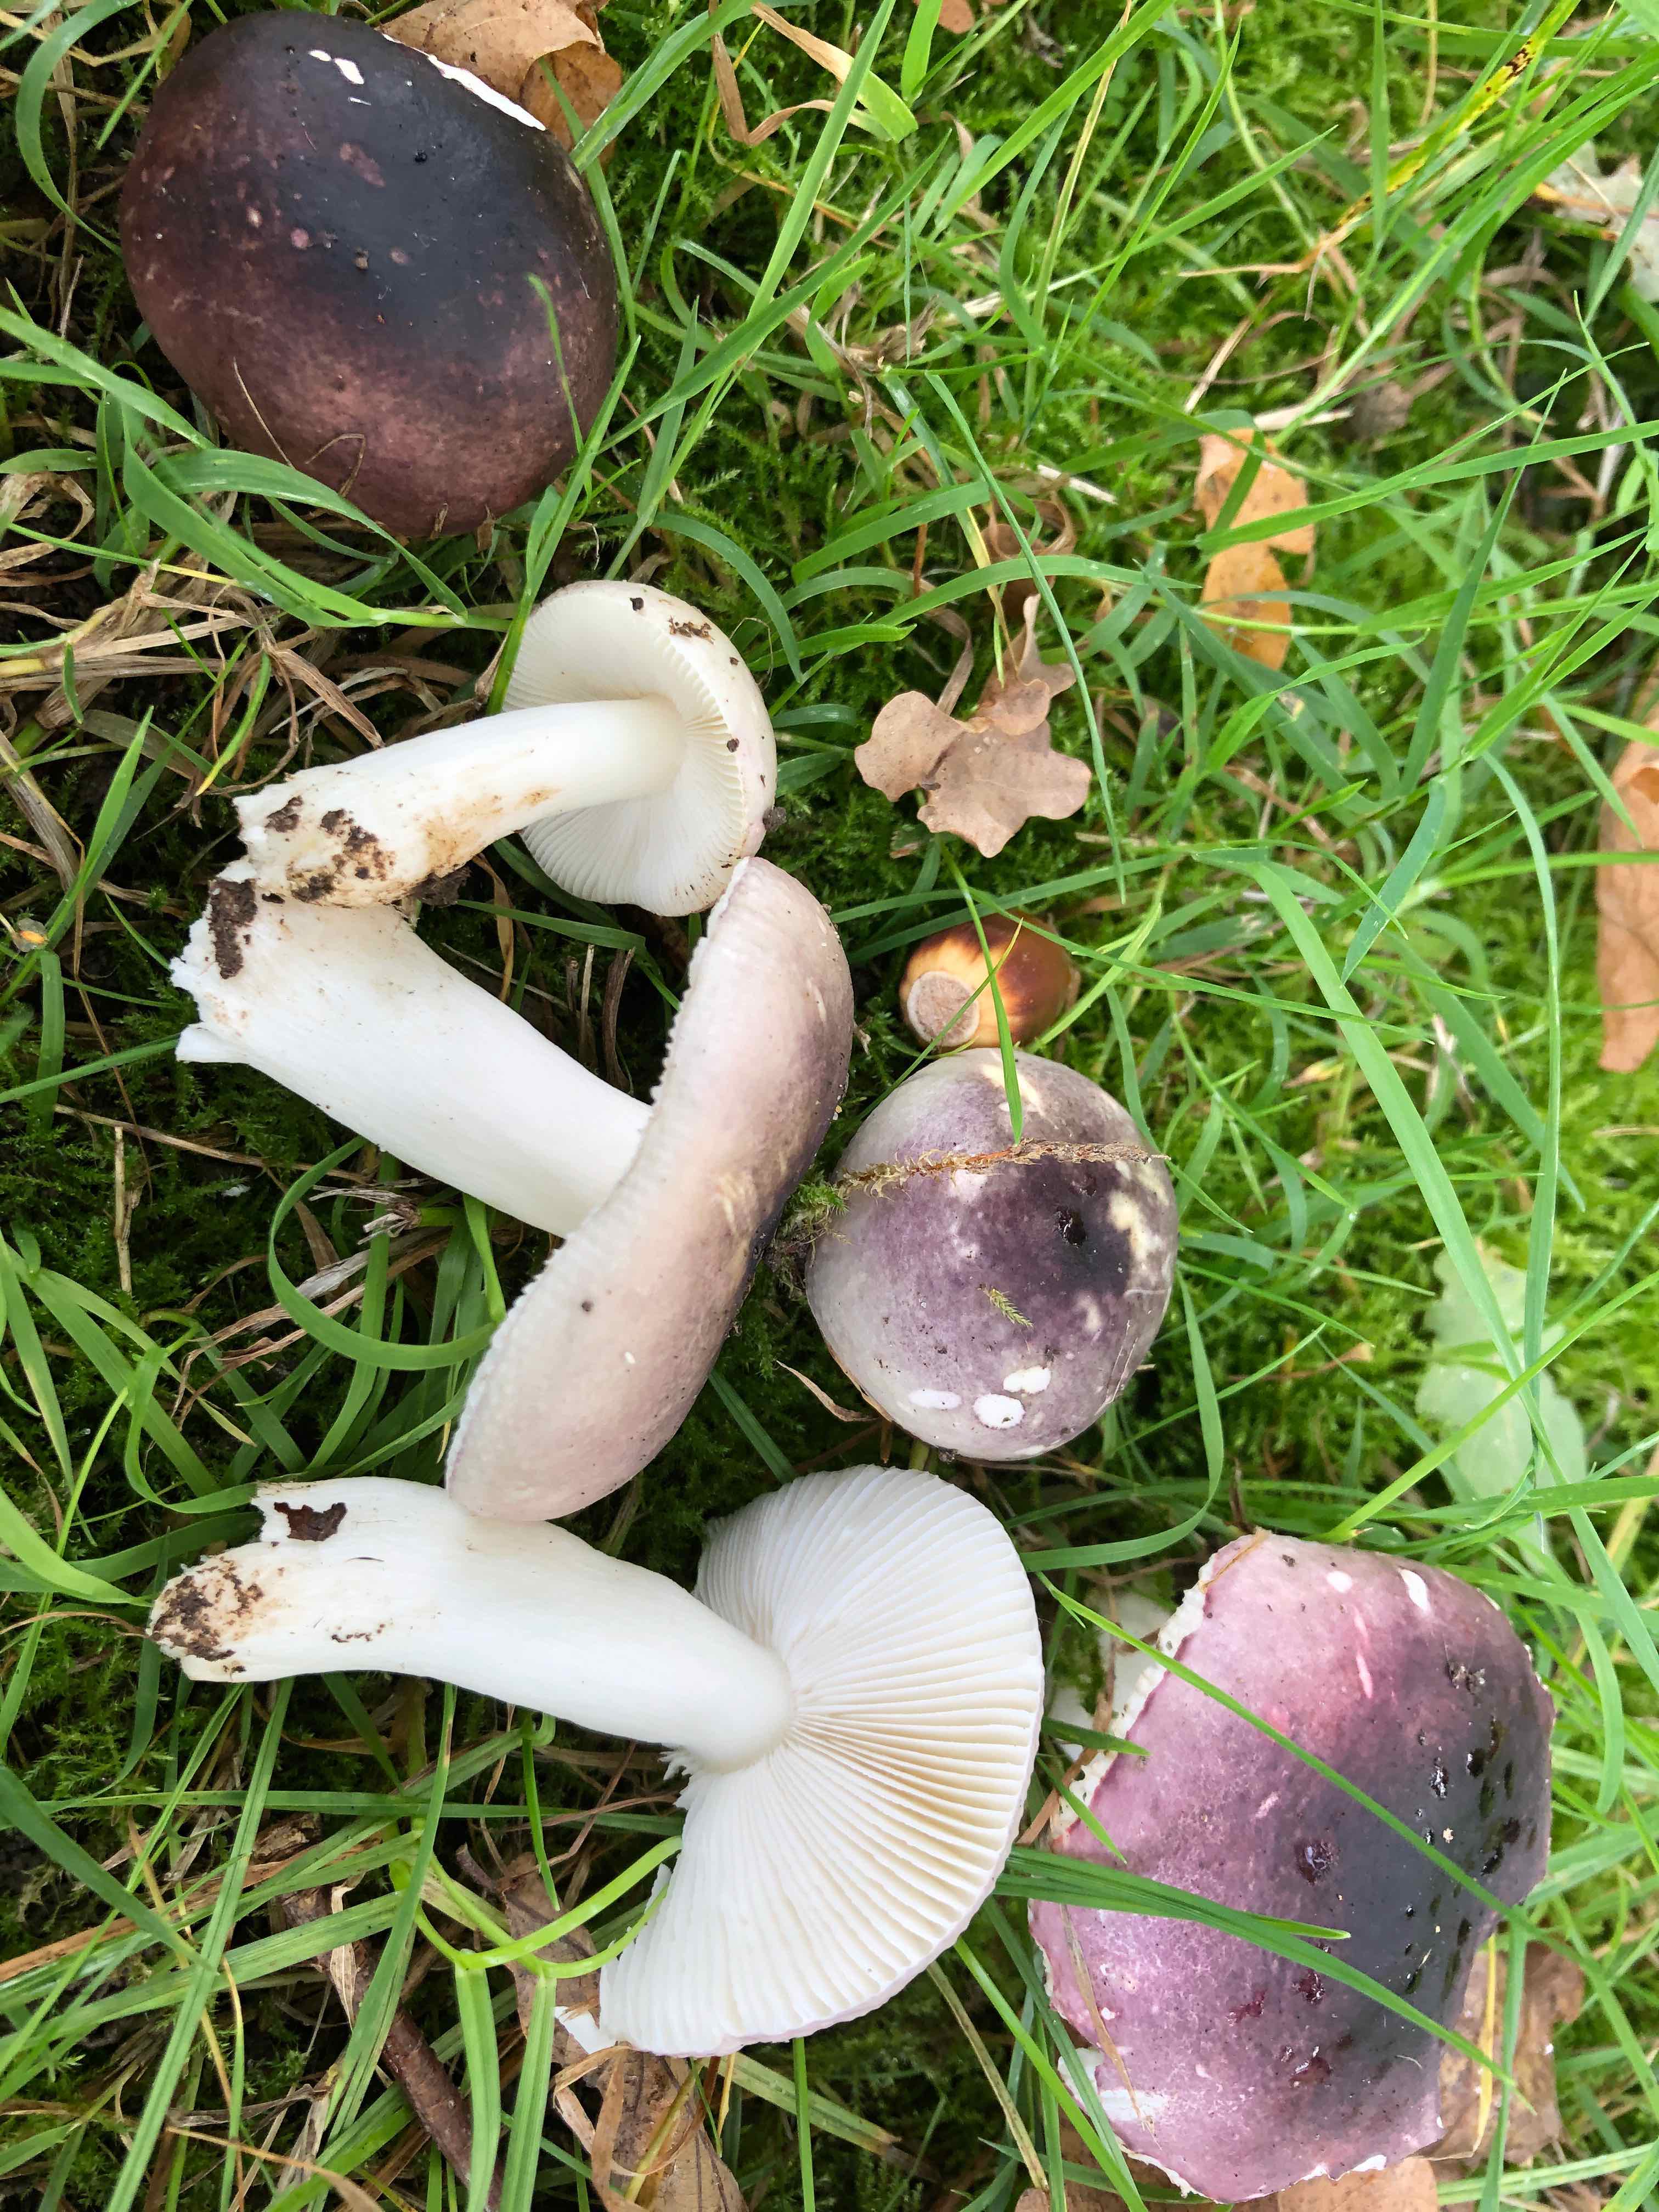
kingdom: Fungi
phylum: Basidiomycota
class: Agaricomycetes
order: Russulales
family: Russulaceae
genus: Russula
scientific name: Russula fragilis
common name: savbladet skørhat
